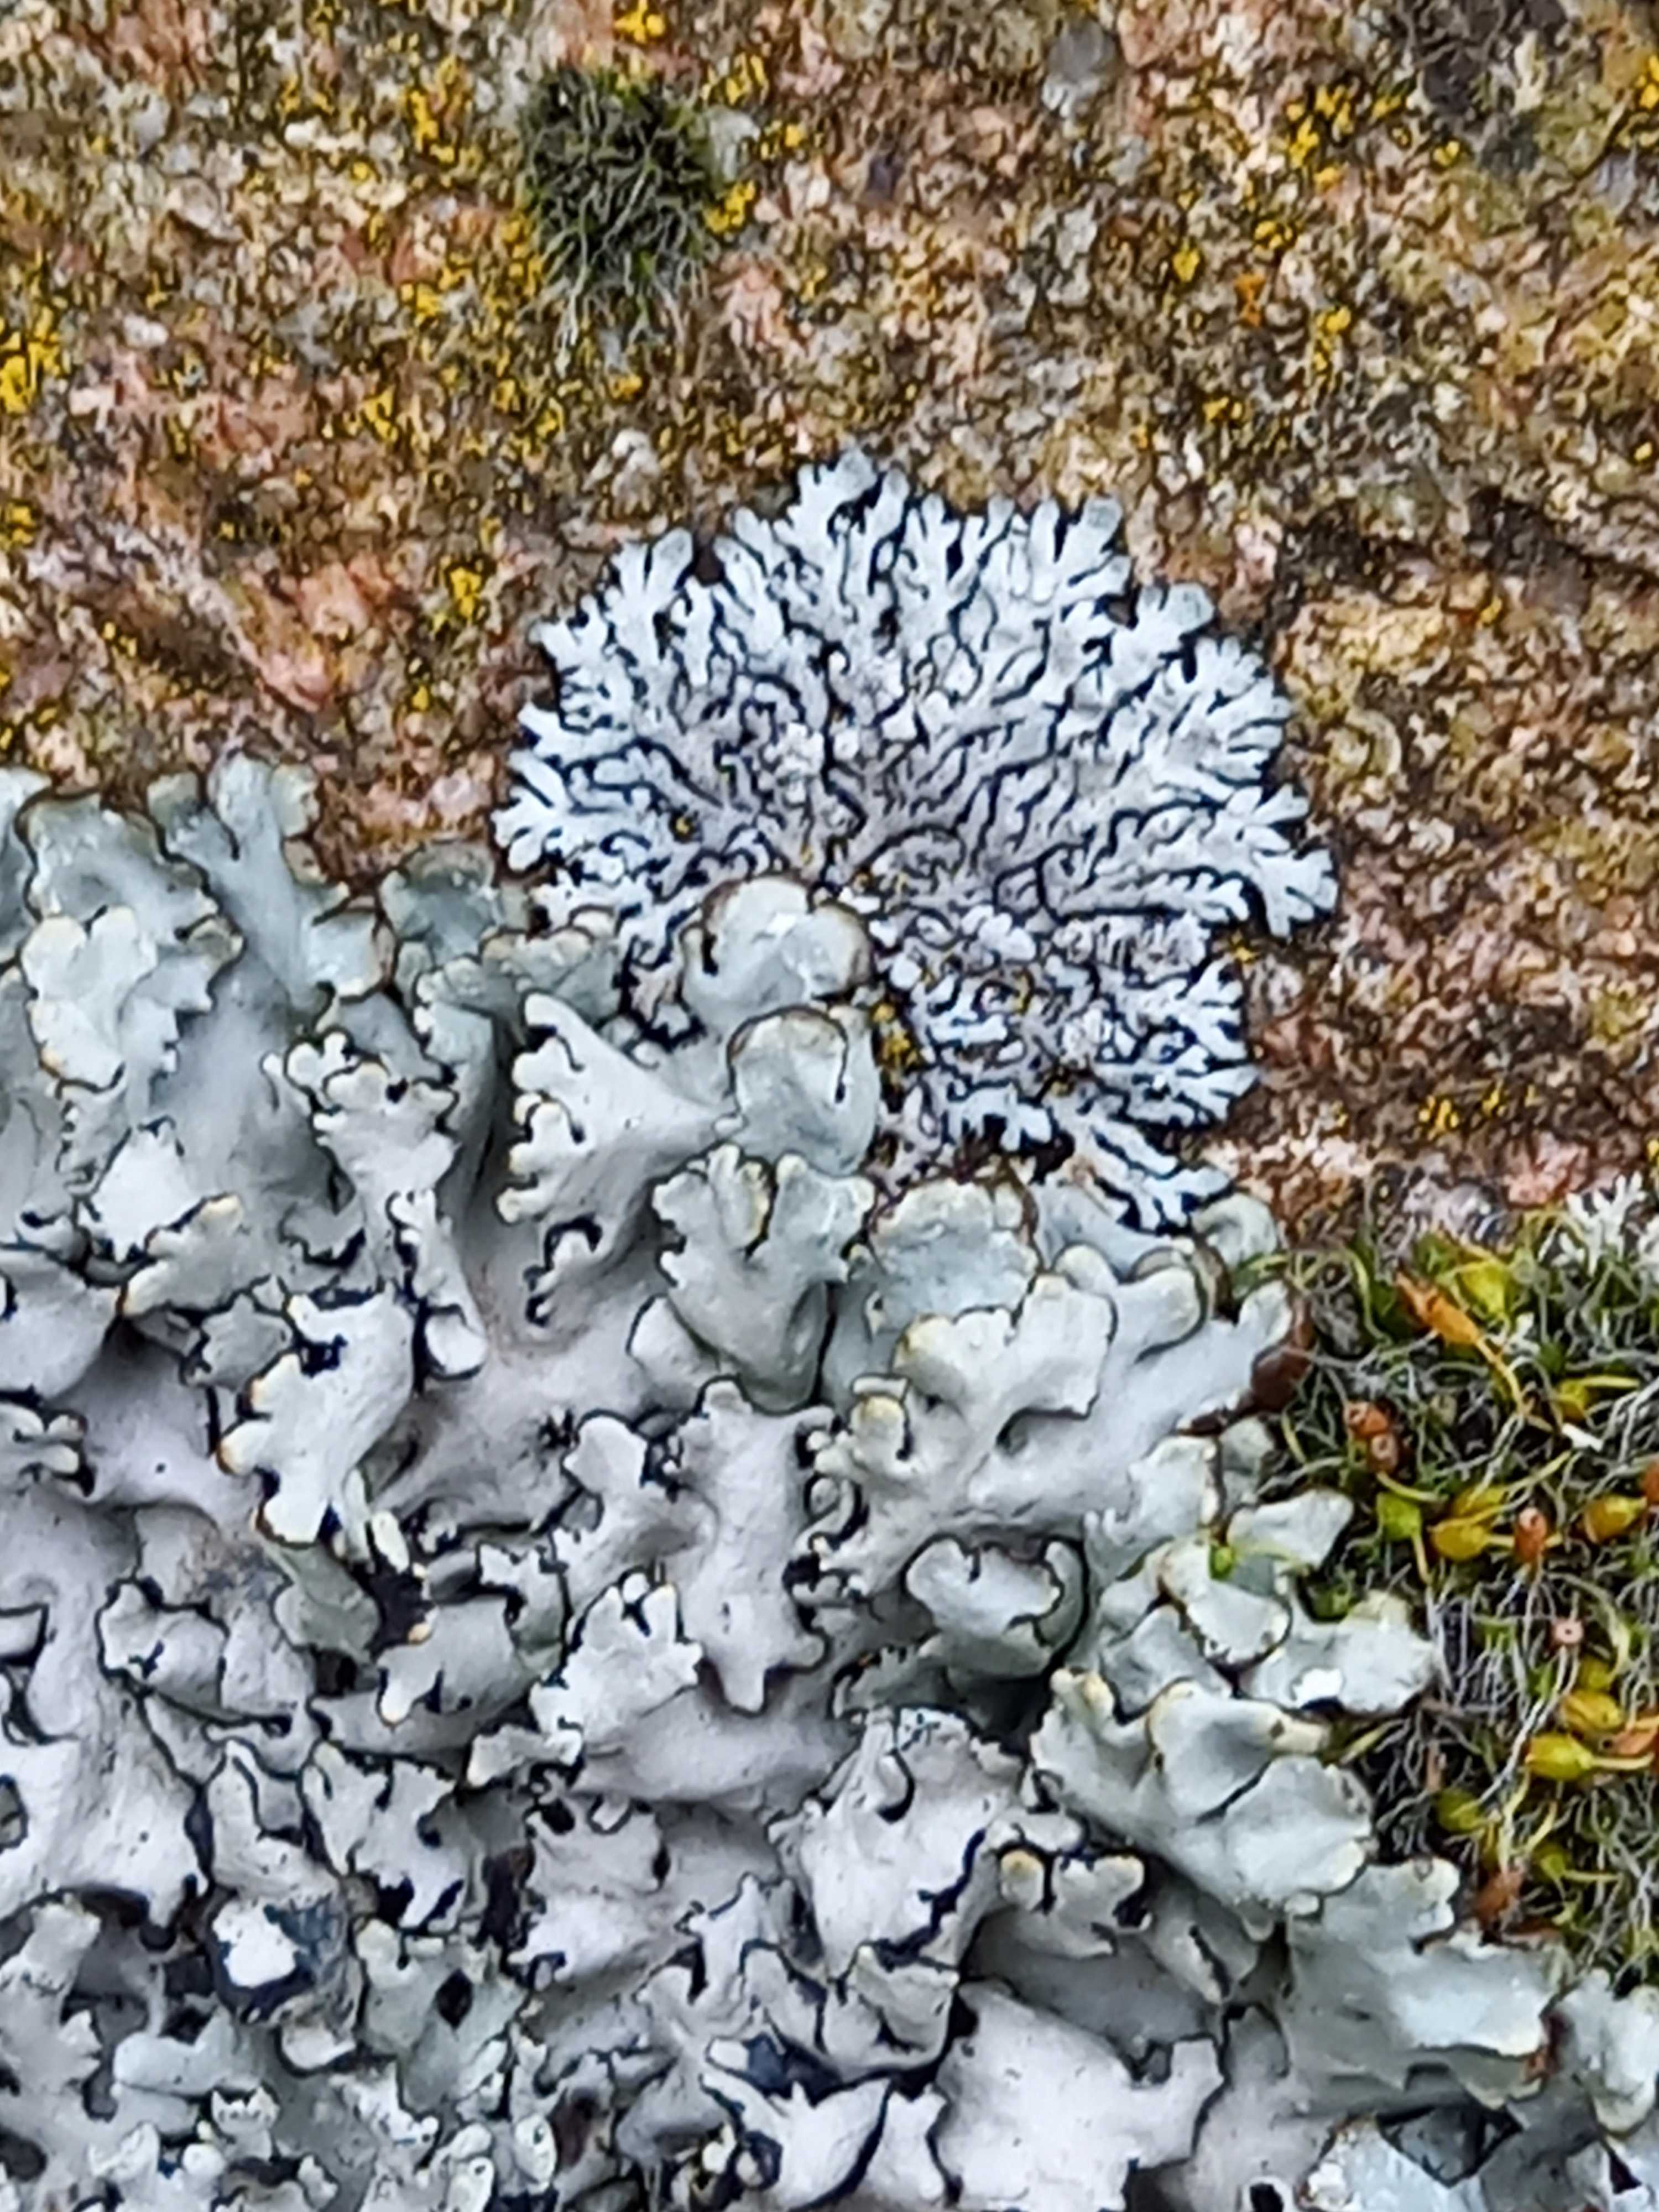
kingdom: Fungi
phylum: Ascomycota
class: Lecanoromycetes
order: Lecanorales
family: Parmeliaceae
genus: Lichen
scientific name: Lichen
